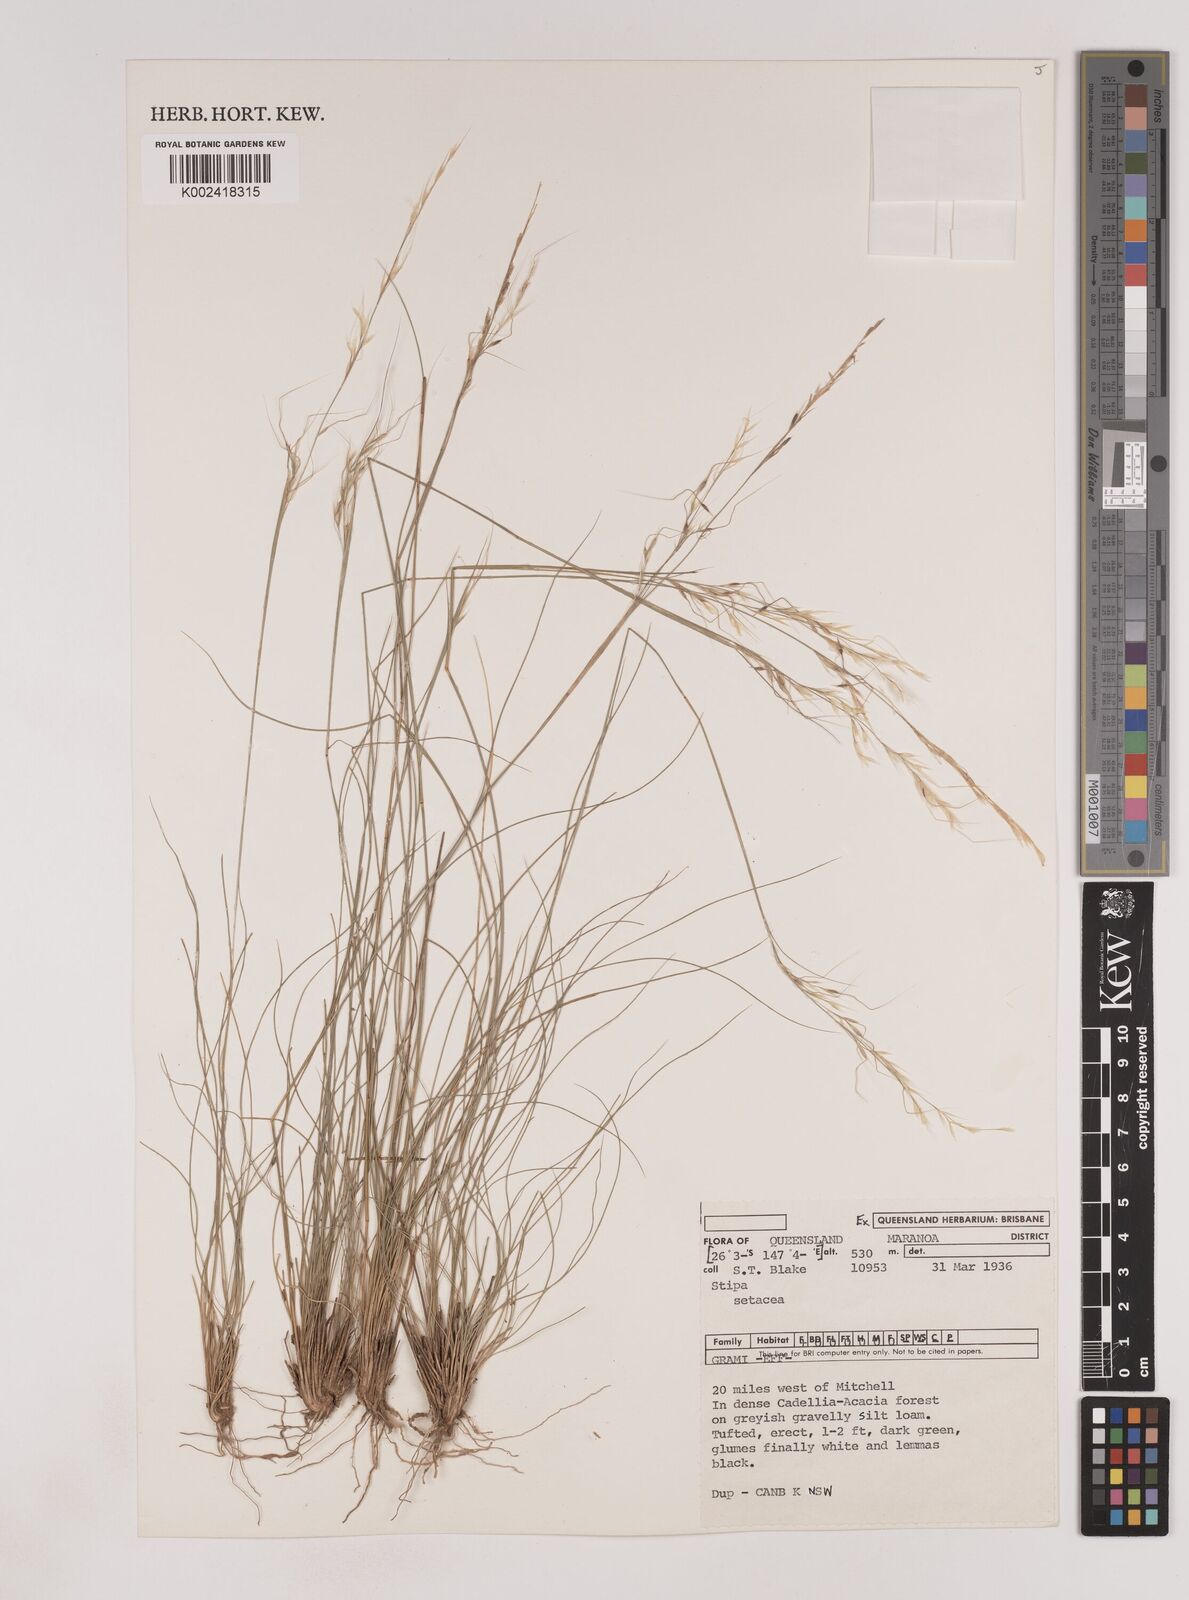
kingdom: Plantae
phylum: Tracheophyta
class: Liliopsida
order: Poales
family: Poaceae
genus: Piptochaetium
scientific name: Piptochaetium
